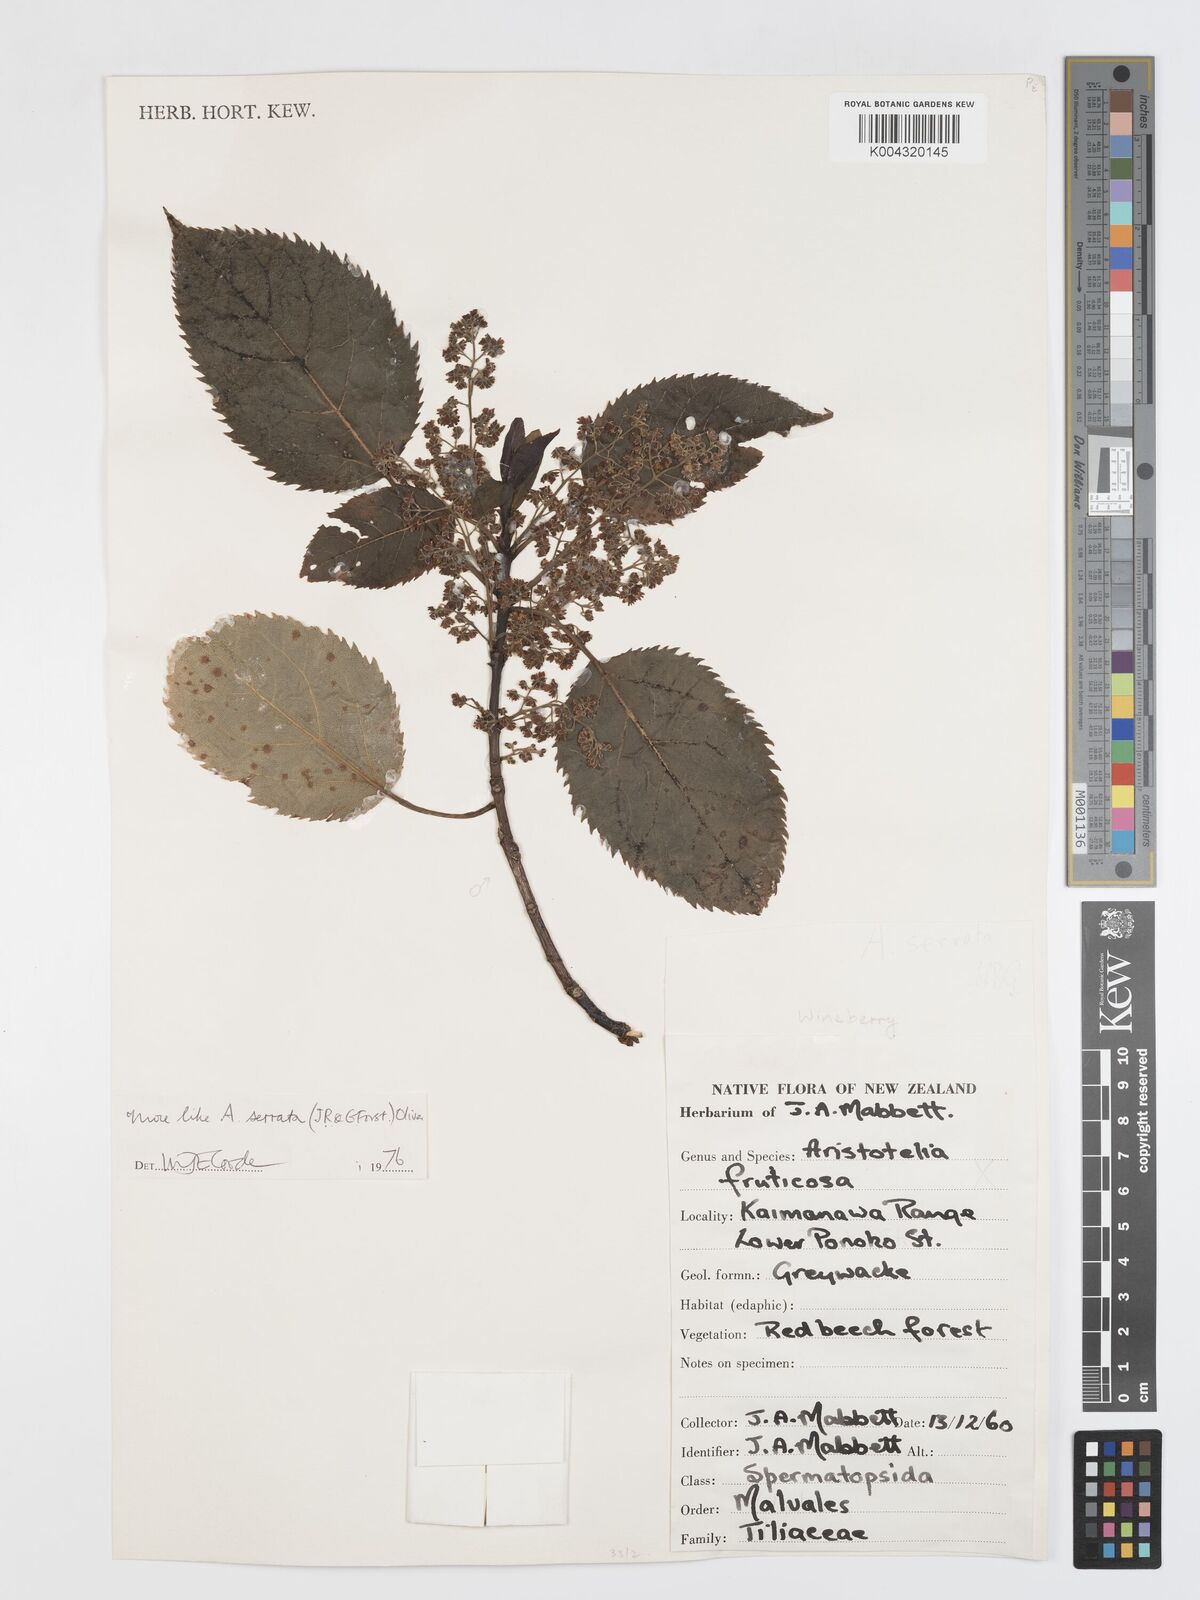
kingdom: Plantae
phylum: Tracheophyta
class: Magnoliopsida
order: Oxalidales
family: Elaeocarpaceae
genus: Aristotelia
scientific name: Aristotelia serrata
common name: New zealand wineberry
